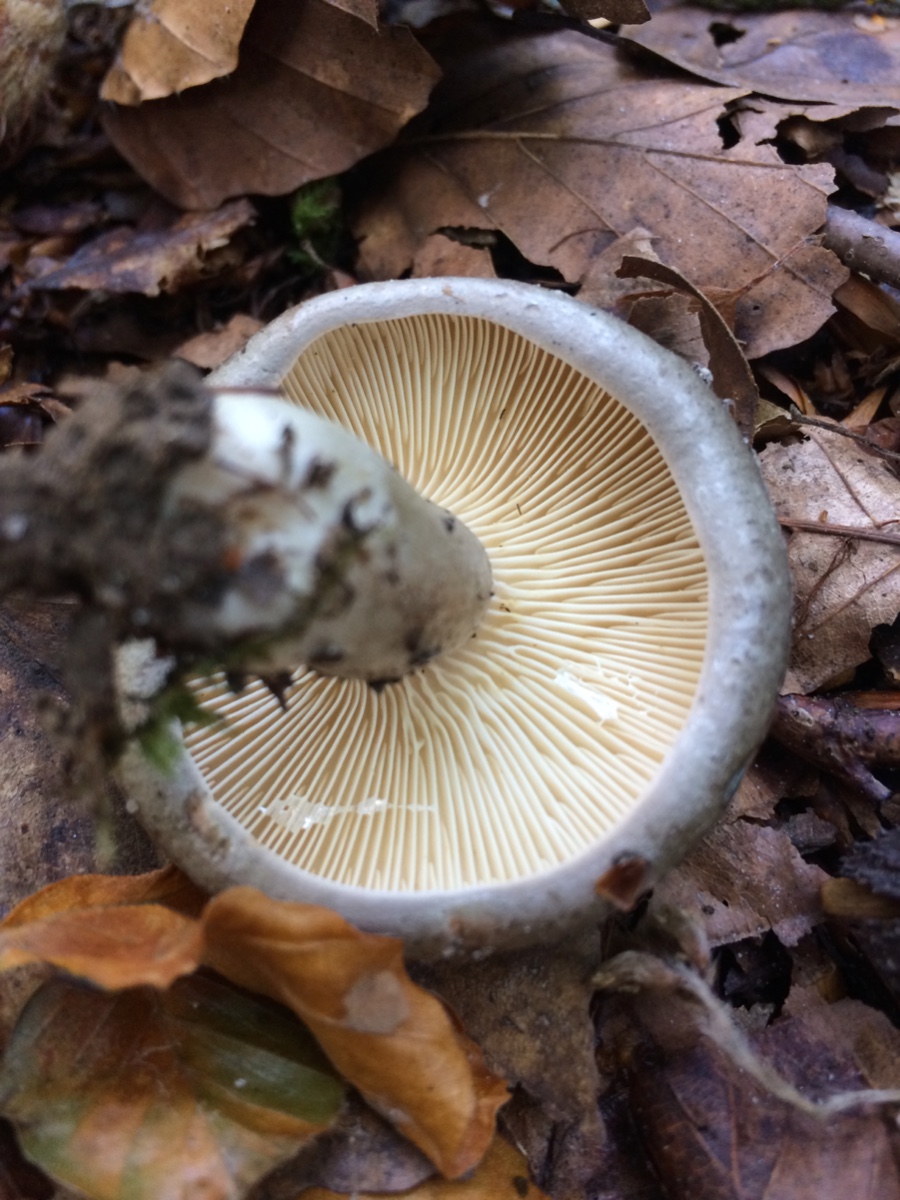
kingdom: Fungi
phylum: Basidiomycota
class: Agaricomycetes
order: Russulales
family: Russulaceae
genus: Lactarius
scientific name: Lactarius pyrogalus
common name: hassel-mælkehat
